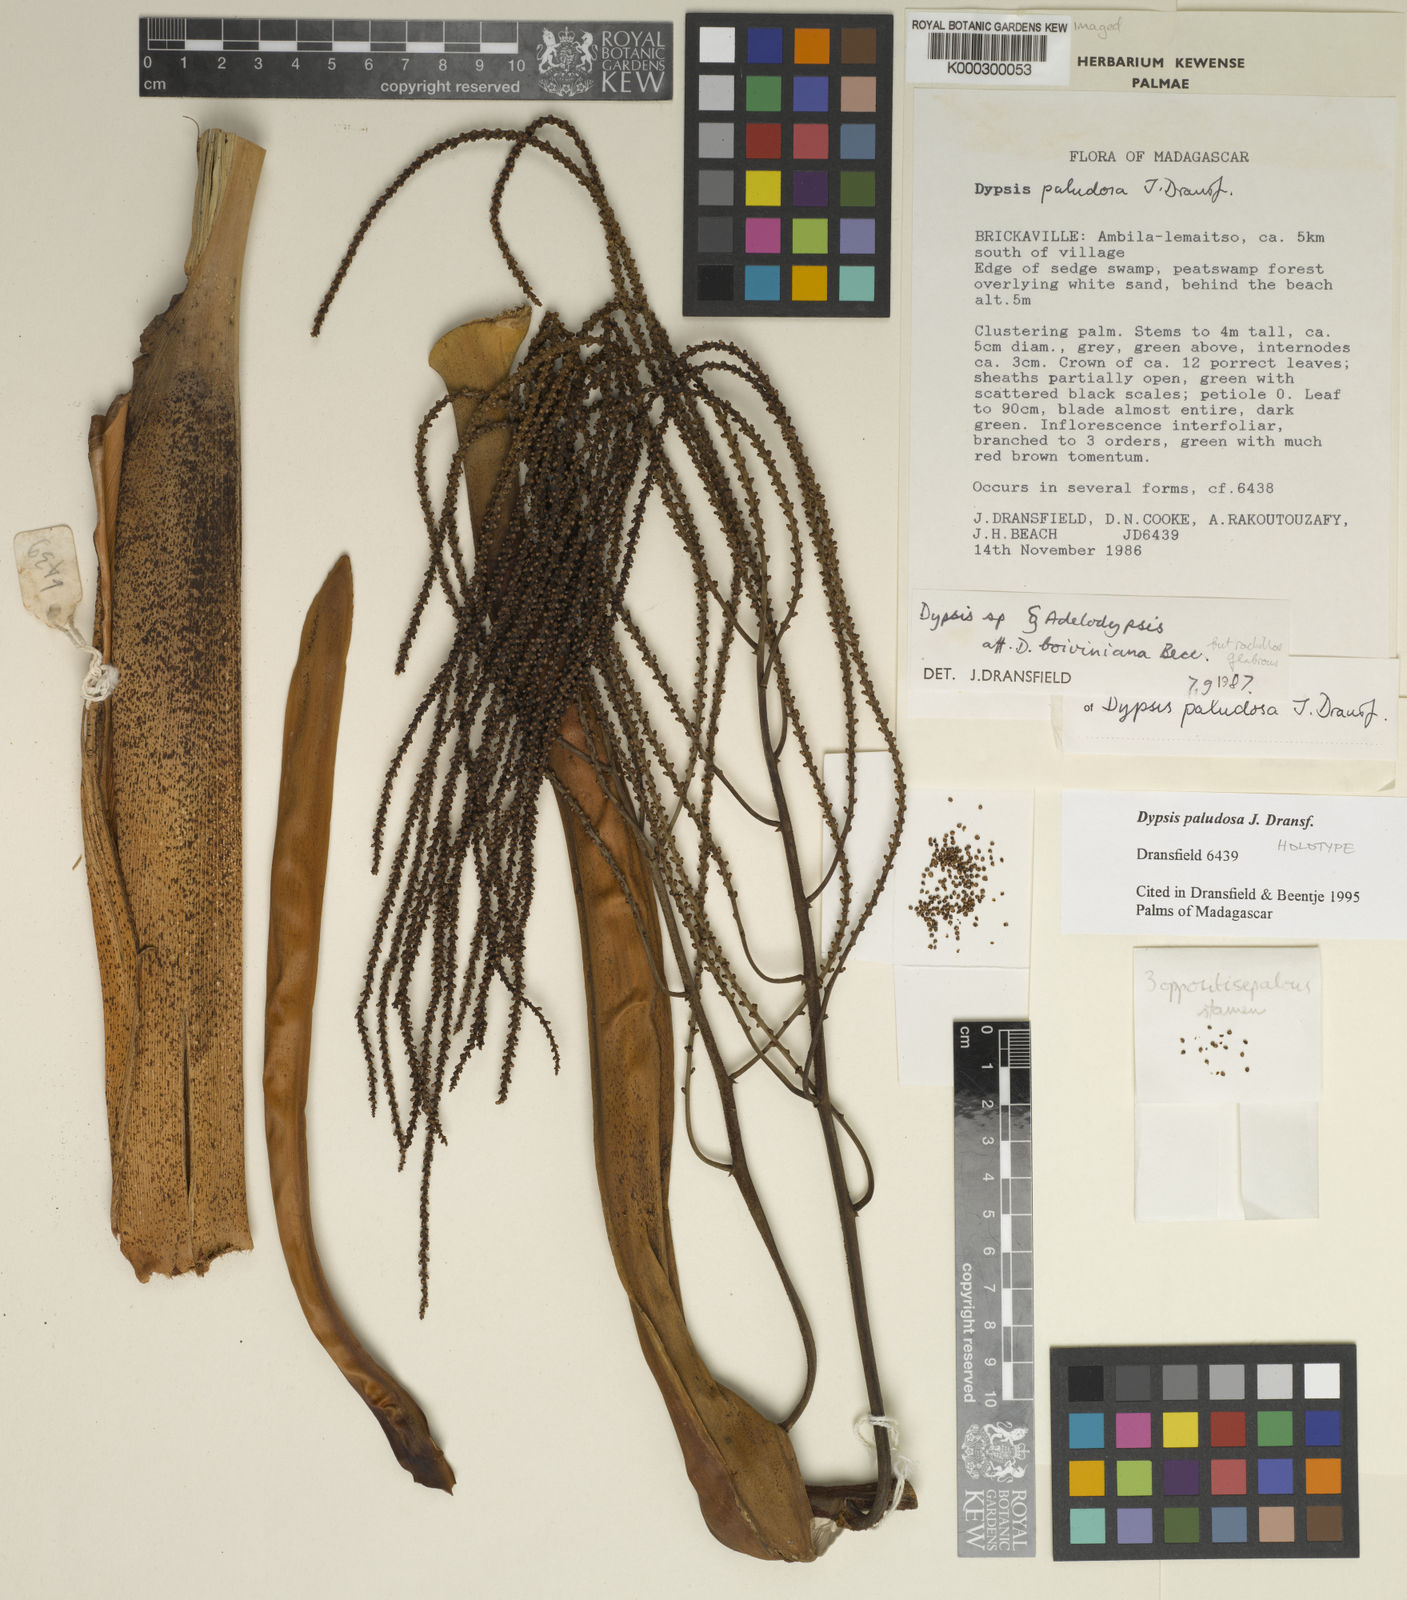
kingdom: Plantae
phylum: Tracheophyta
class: Liliopsida
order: Arecales
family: Arecaceae
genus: Dypsis
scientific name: Dypsis paludosa
